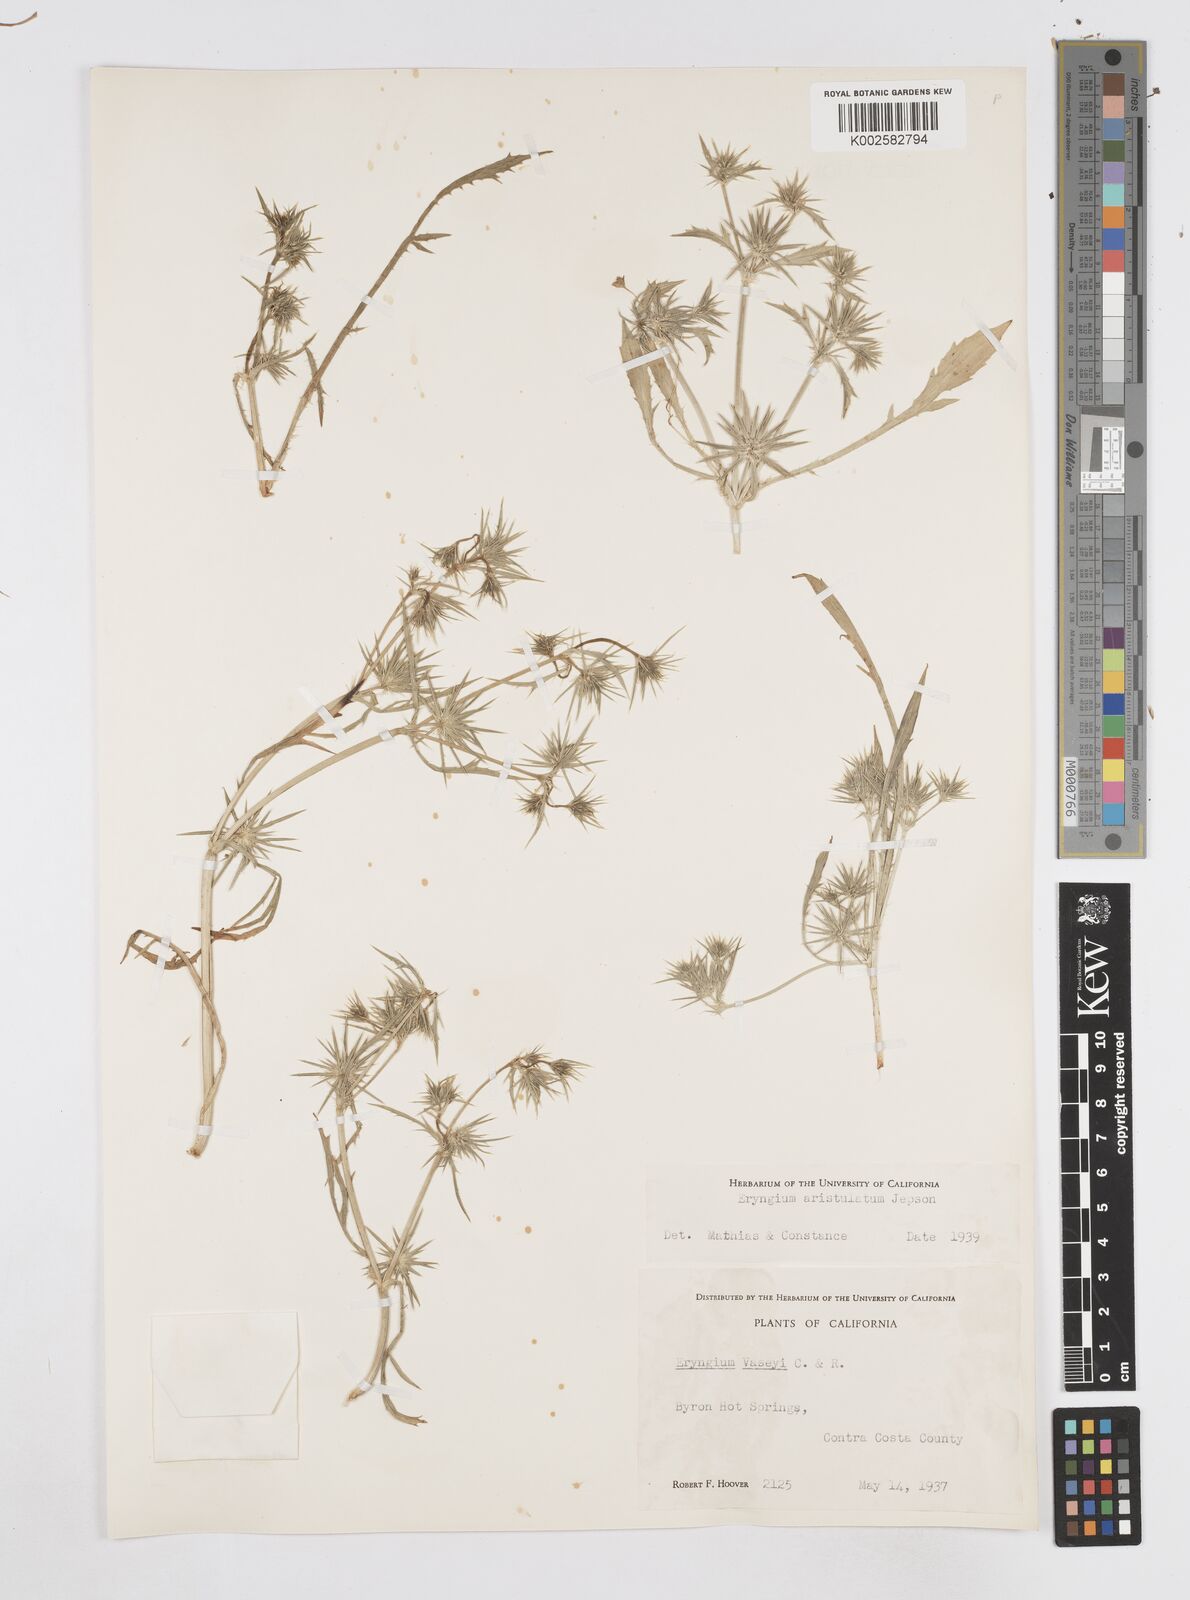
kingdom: Plantae
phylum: Tracheophyta
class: Magnoliopsida
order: Apiales
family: Apiaceae
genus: Eryngium
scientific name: Eryngium aristulatum
